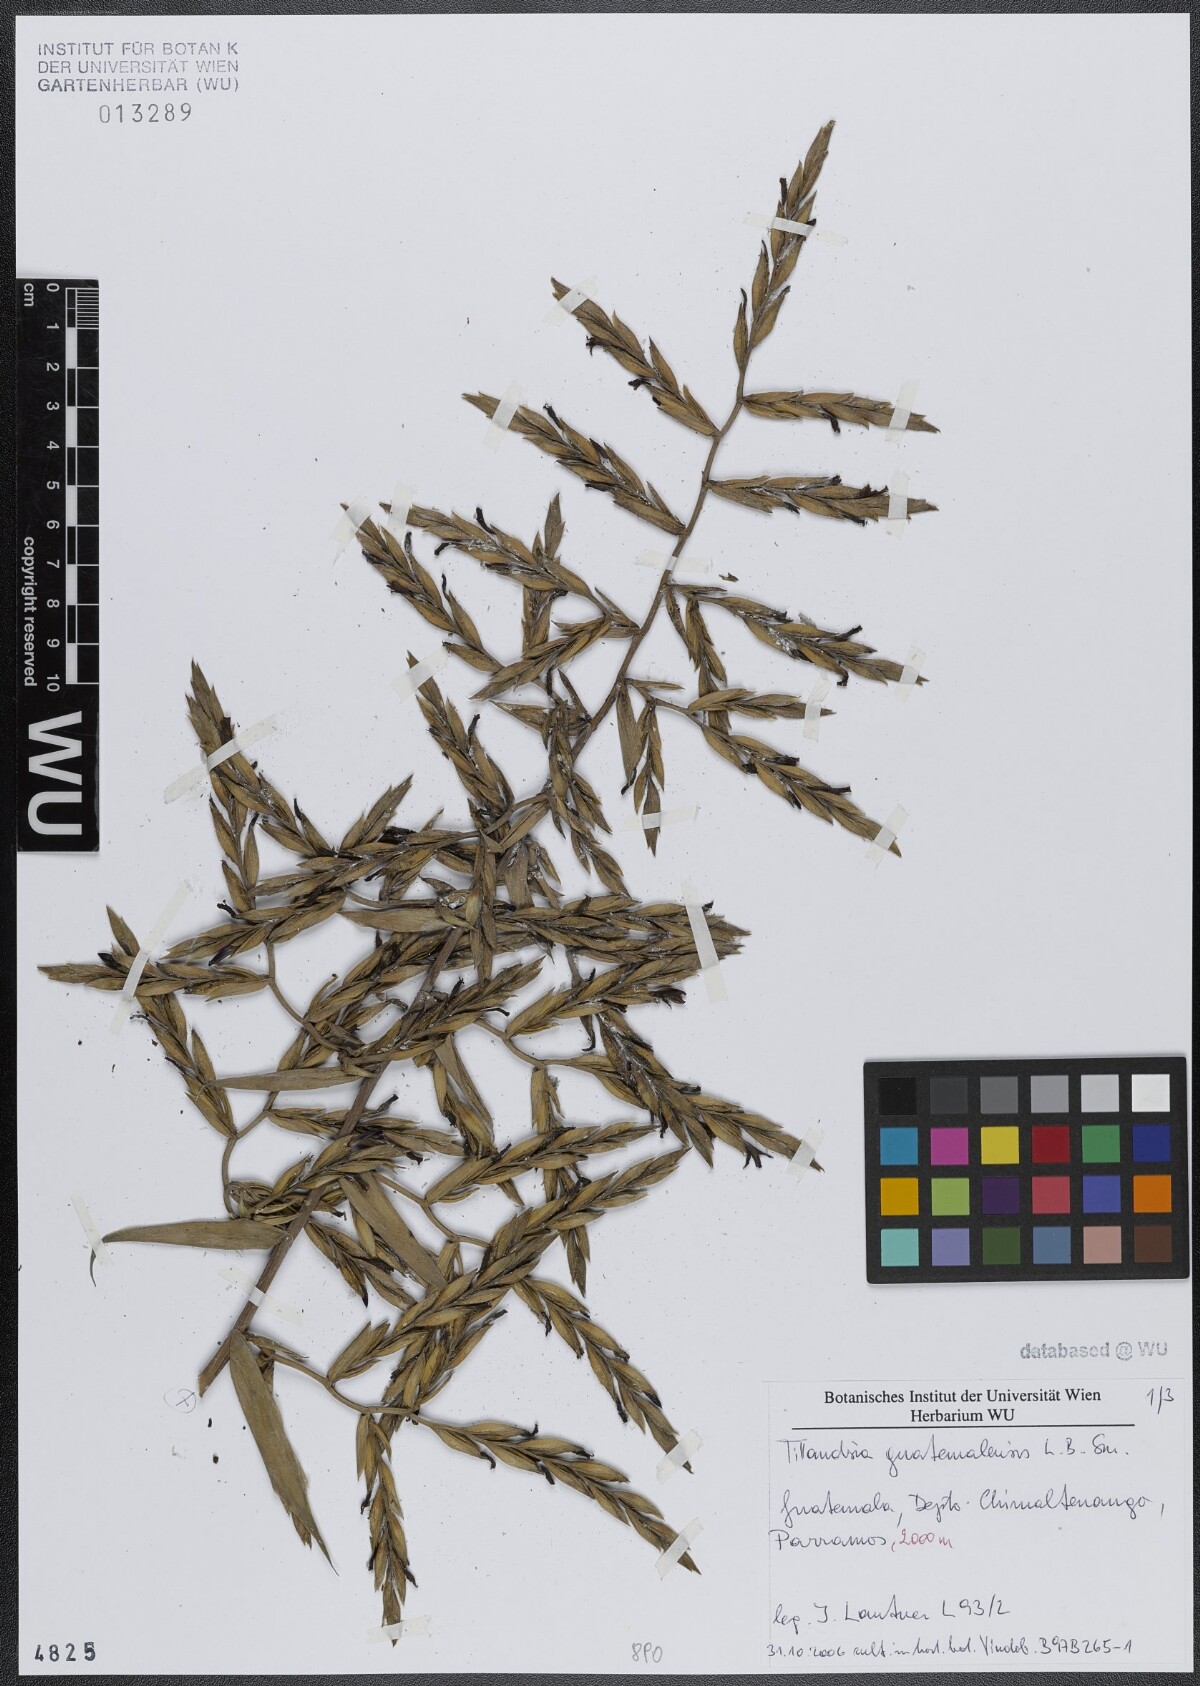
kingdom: Plantae
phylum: Tracheophyta
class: Liliopsida
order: Poales
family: Bromeliaceae
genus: Tillandsia
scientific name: Tillandsia guatemalensis
